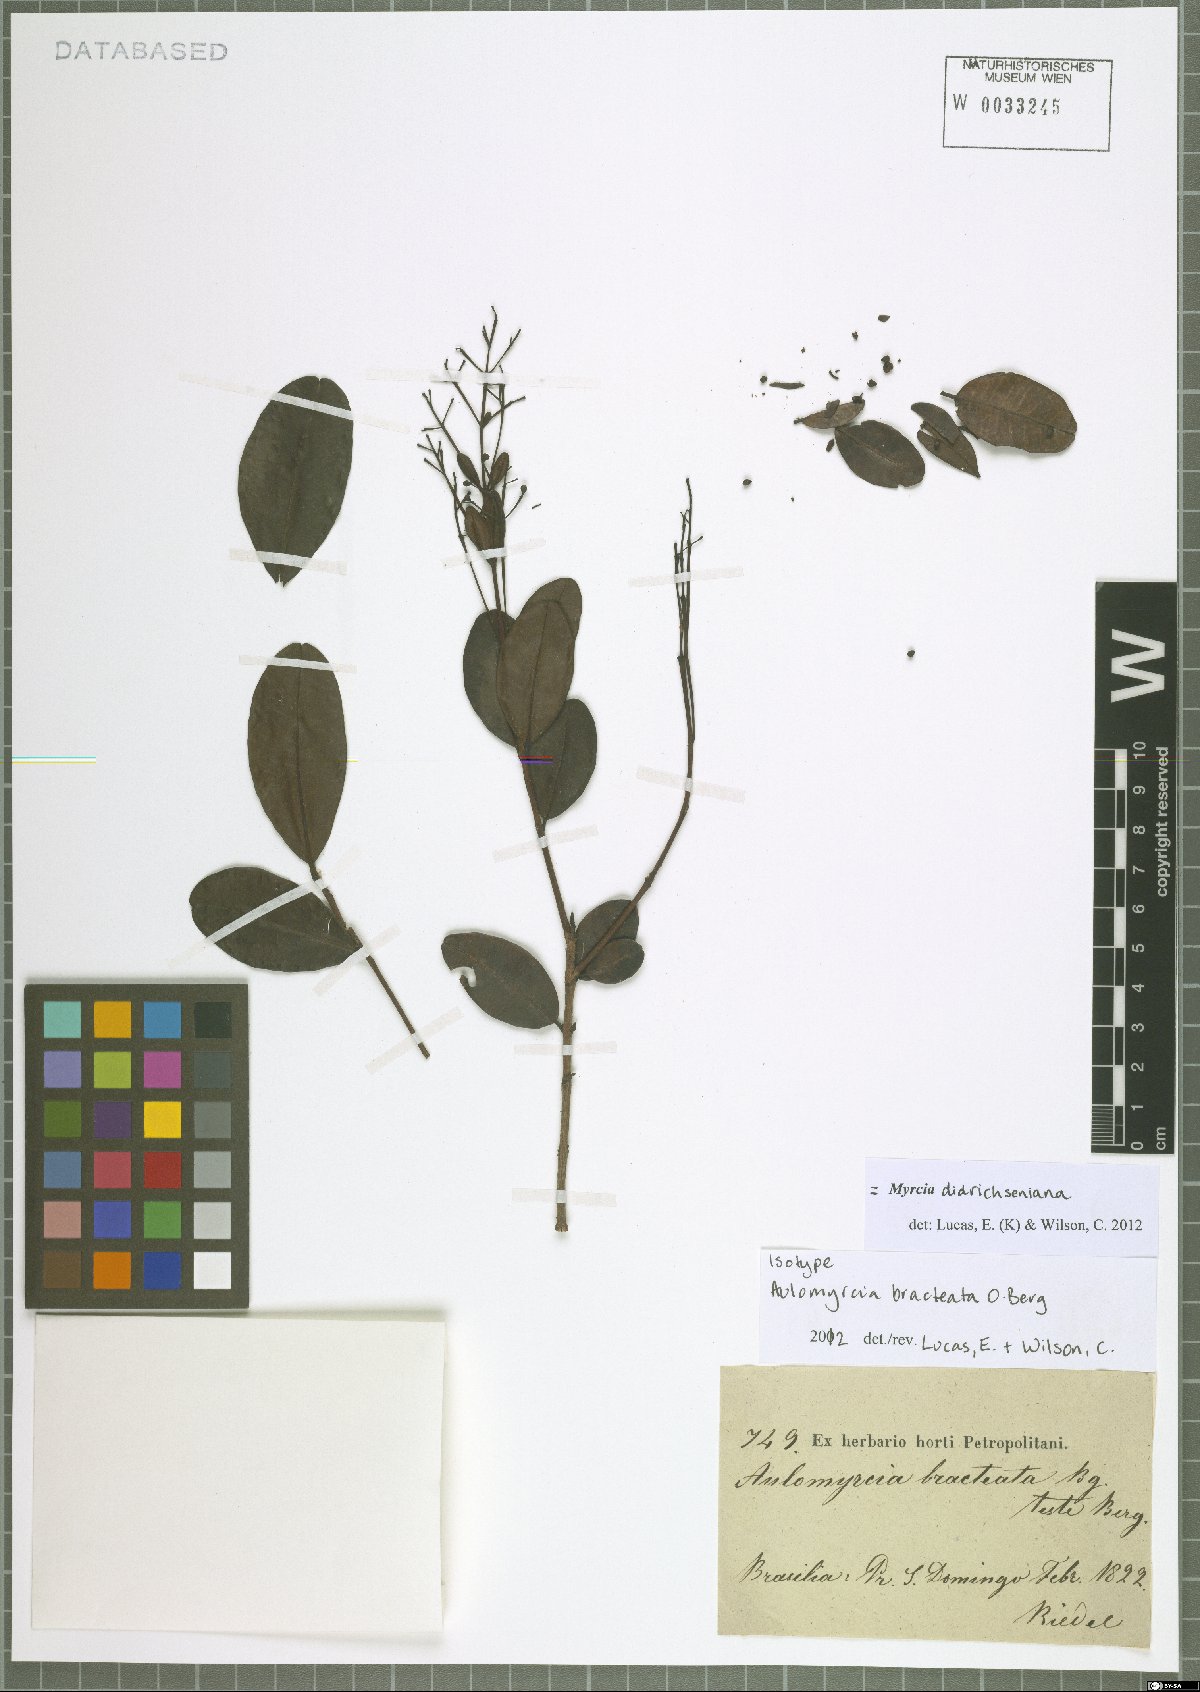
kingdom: Plantae
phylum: Tracheophyta
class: Magnoliopsida
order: Myrtales
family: Myrtaceae
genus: Myrcia
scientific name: Myrcia didrichseniana
